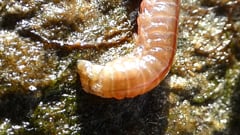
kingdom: Animalia
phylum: Annelida
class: Polychaeta
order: Phyllodocida
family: Nereididae
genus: Nereis
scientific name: Nereis pelagica
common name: Pelagic clam worm
